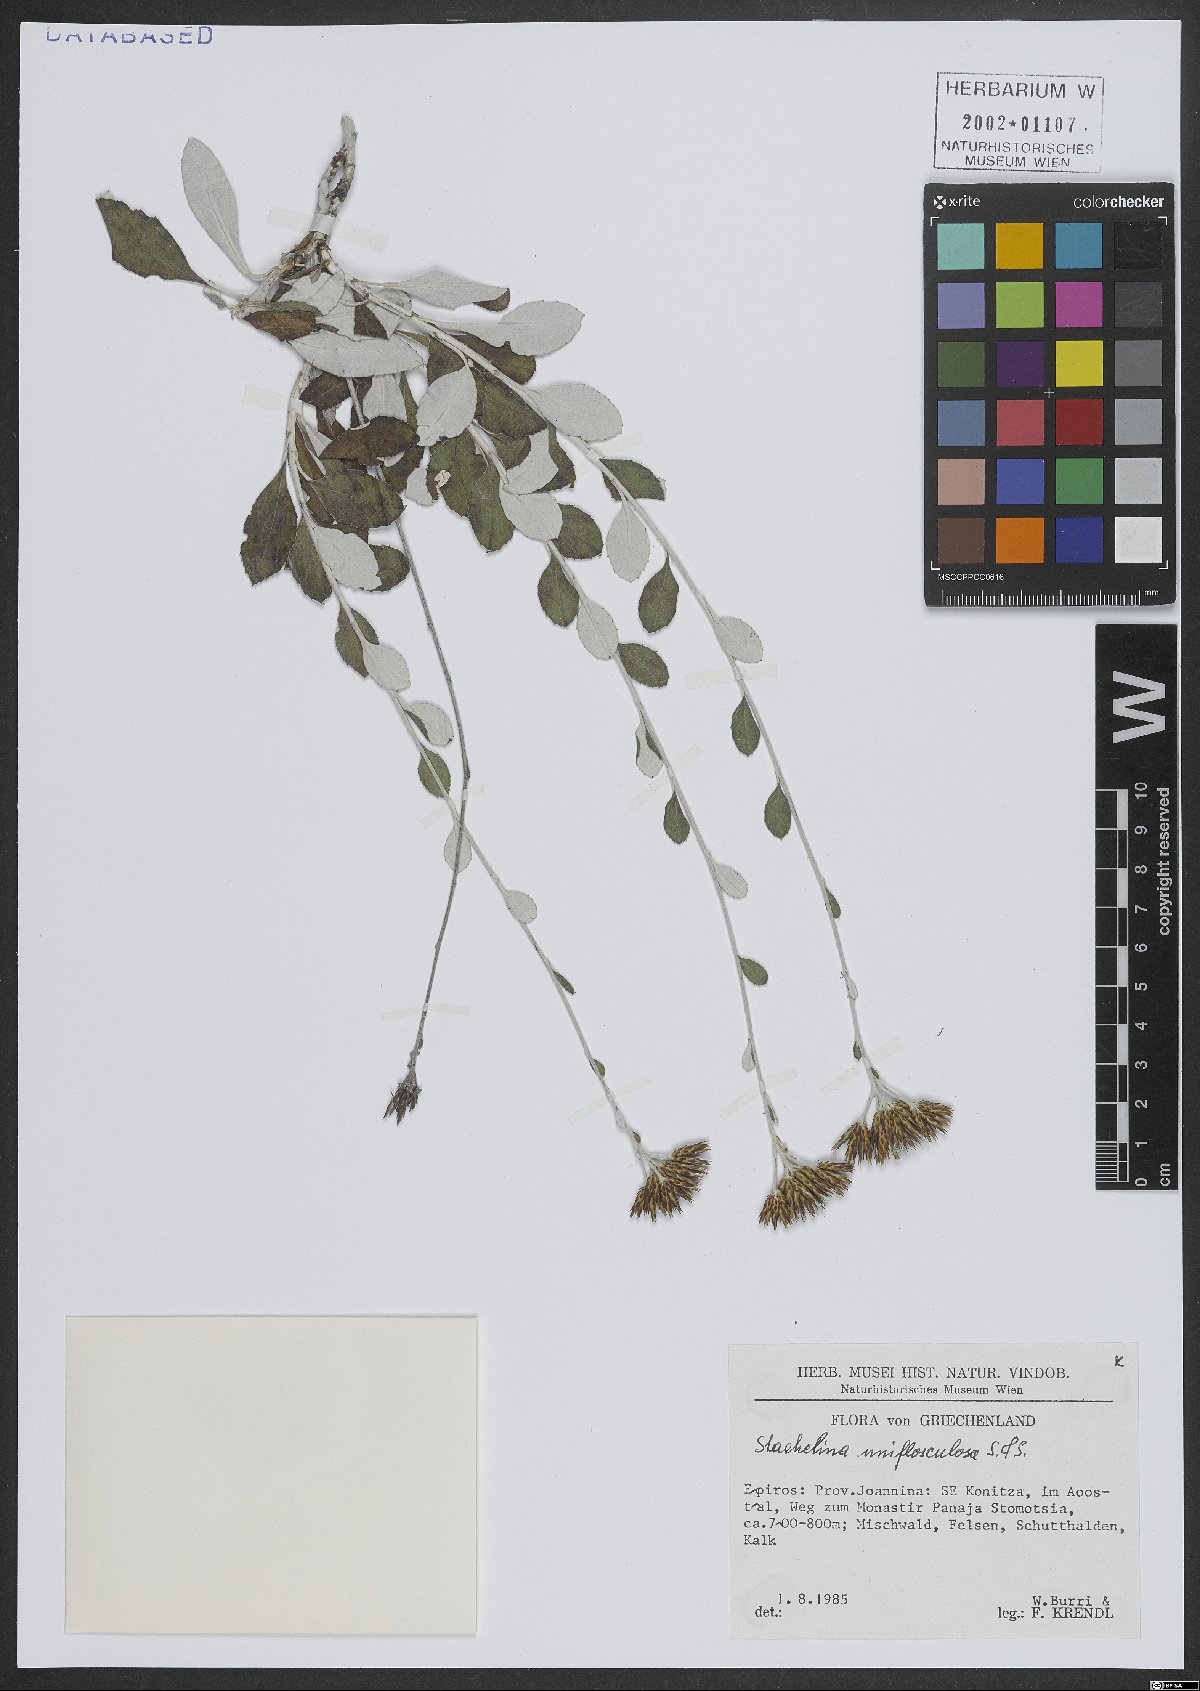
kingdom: Plantae
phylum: Tracheophyta
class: Magnoliopsida
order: Asterales
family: Asteraceae
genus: Staehelina
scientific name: Staehelina uniflosculosa
